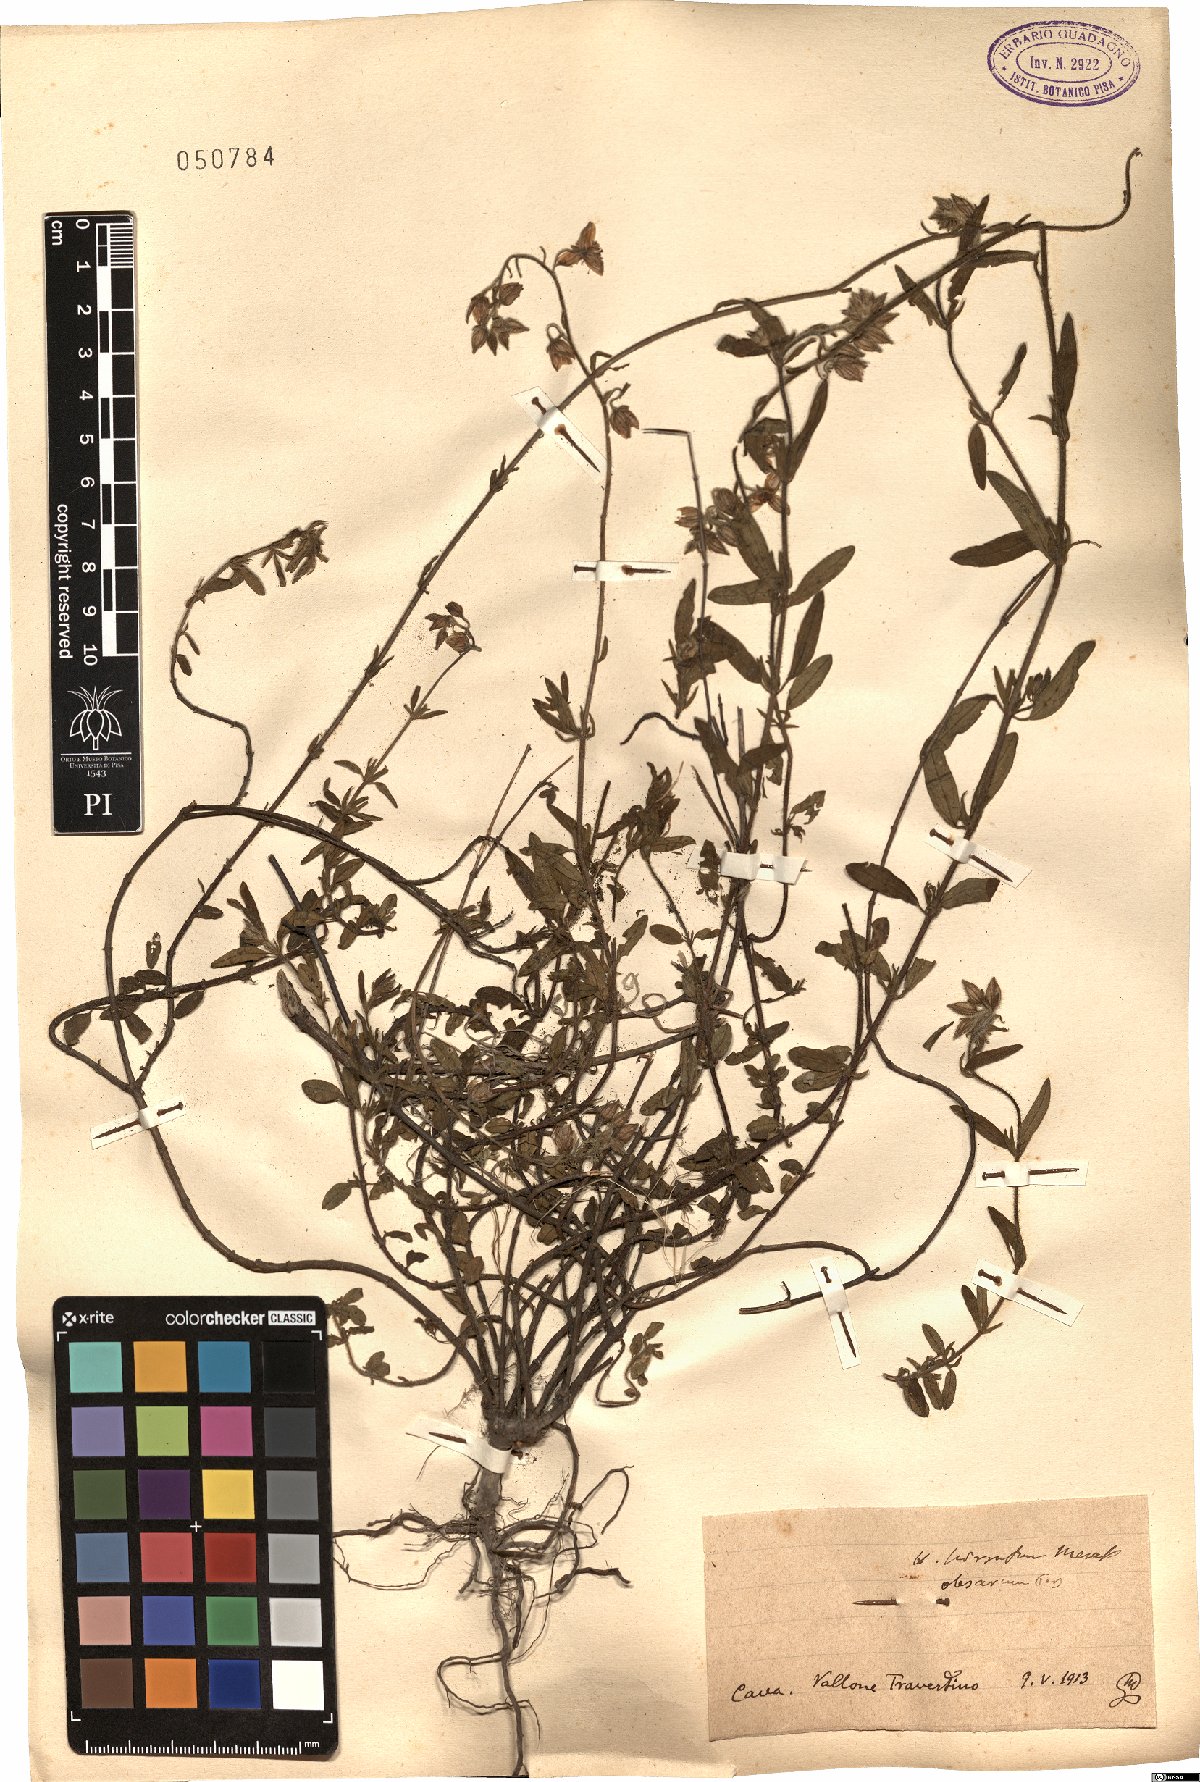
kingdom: Plantae
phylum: Tracheophyta
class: Magnoliopsida
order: Malvales
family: Cistaceae
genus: Helianthemum
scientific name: Helianthemum nummularium
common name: Common rock-rose
